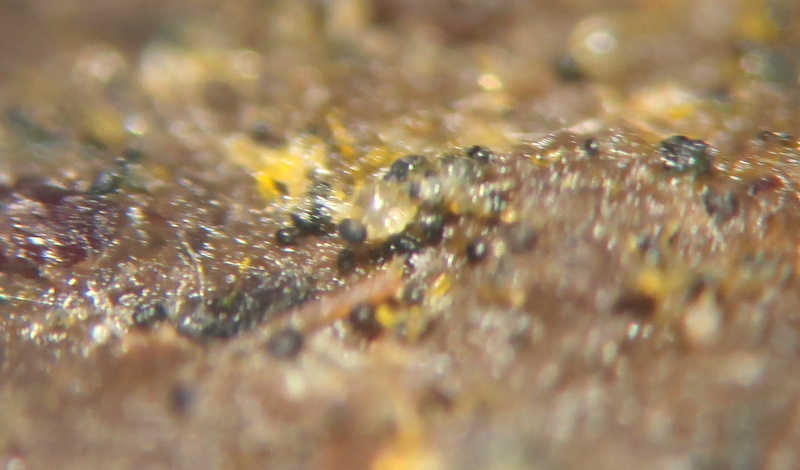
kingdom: Fungi
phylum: Mucoromycota
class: Mucoromycetes
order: Mucorales
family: Pilobolaceae
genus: Pilobolus
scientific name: Pilobolus
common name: boldkaster
